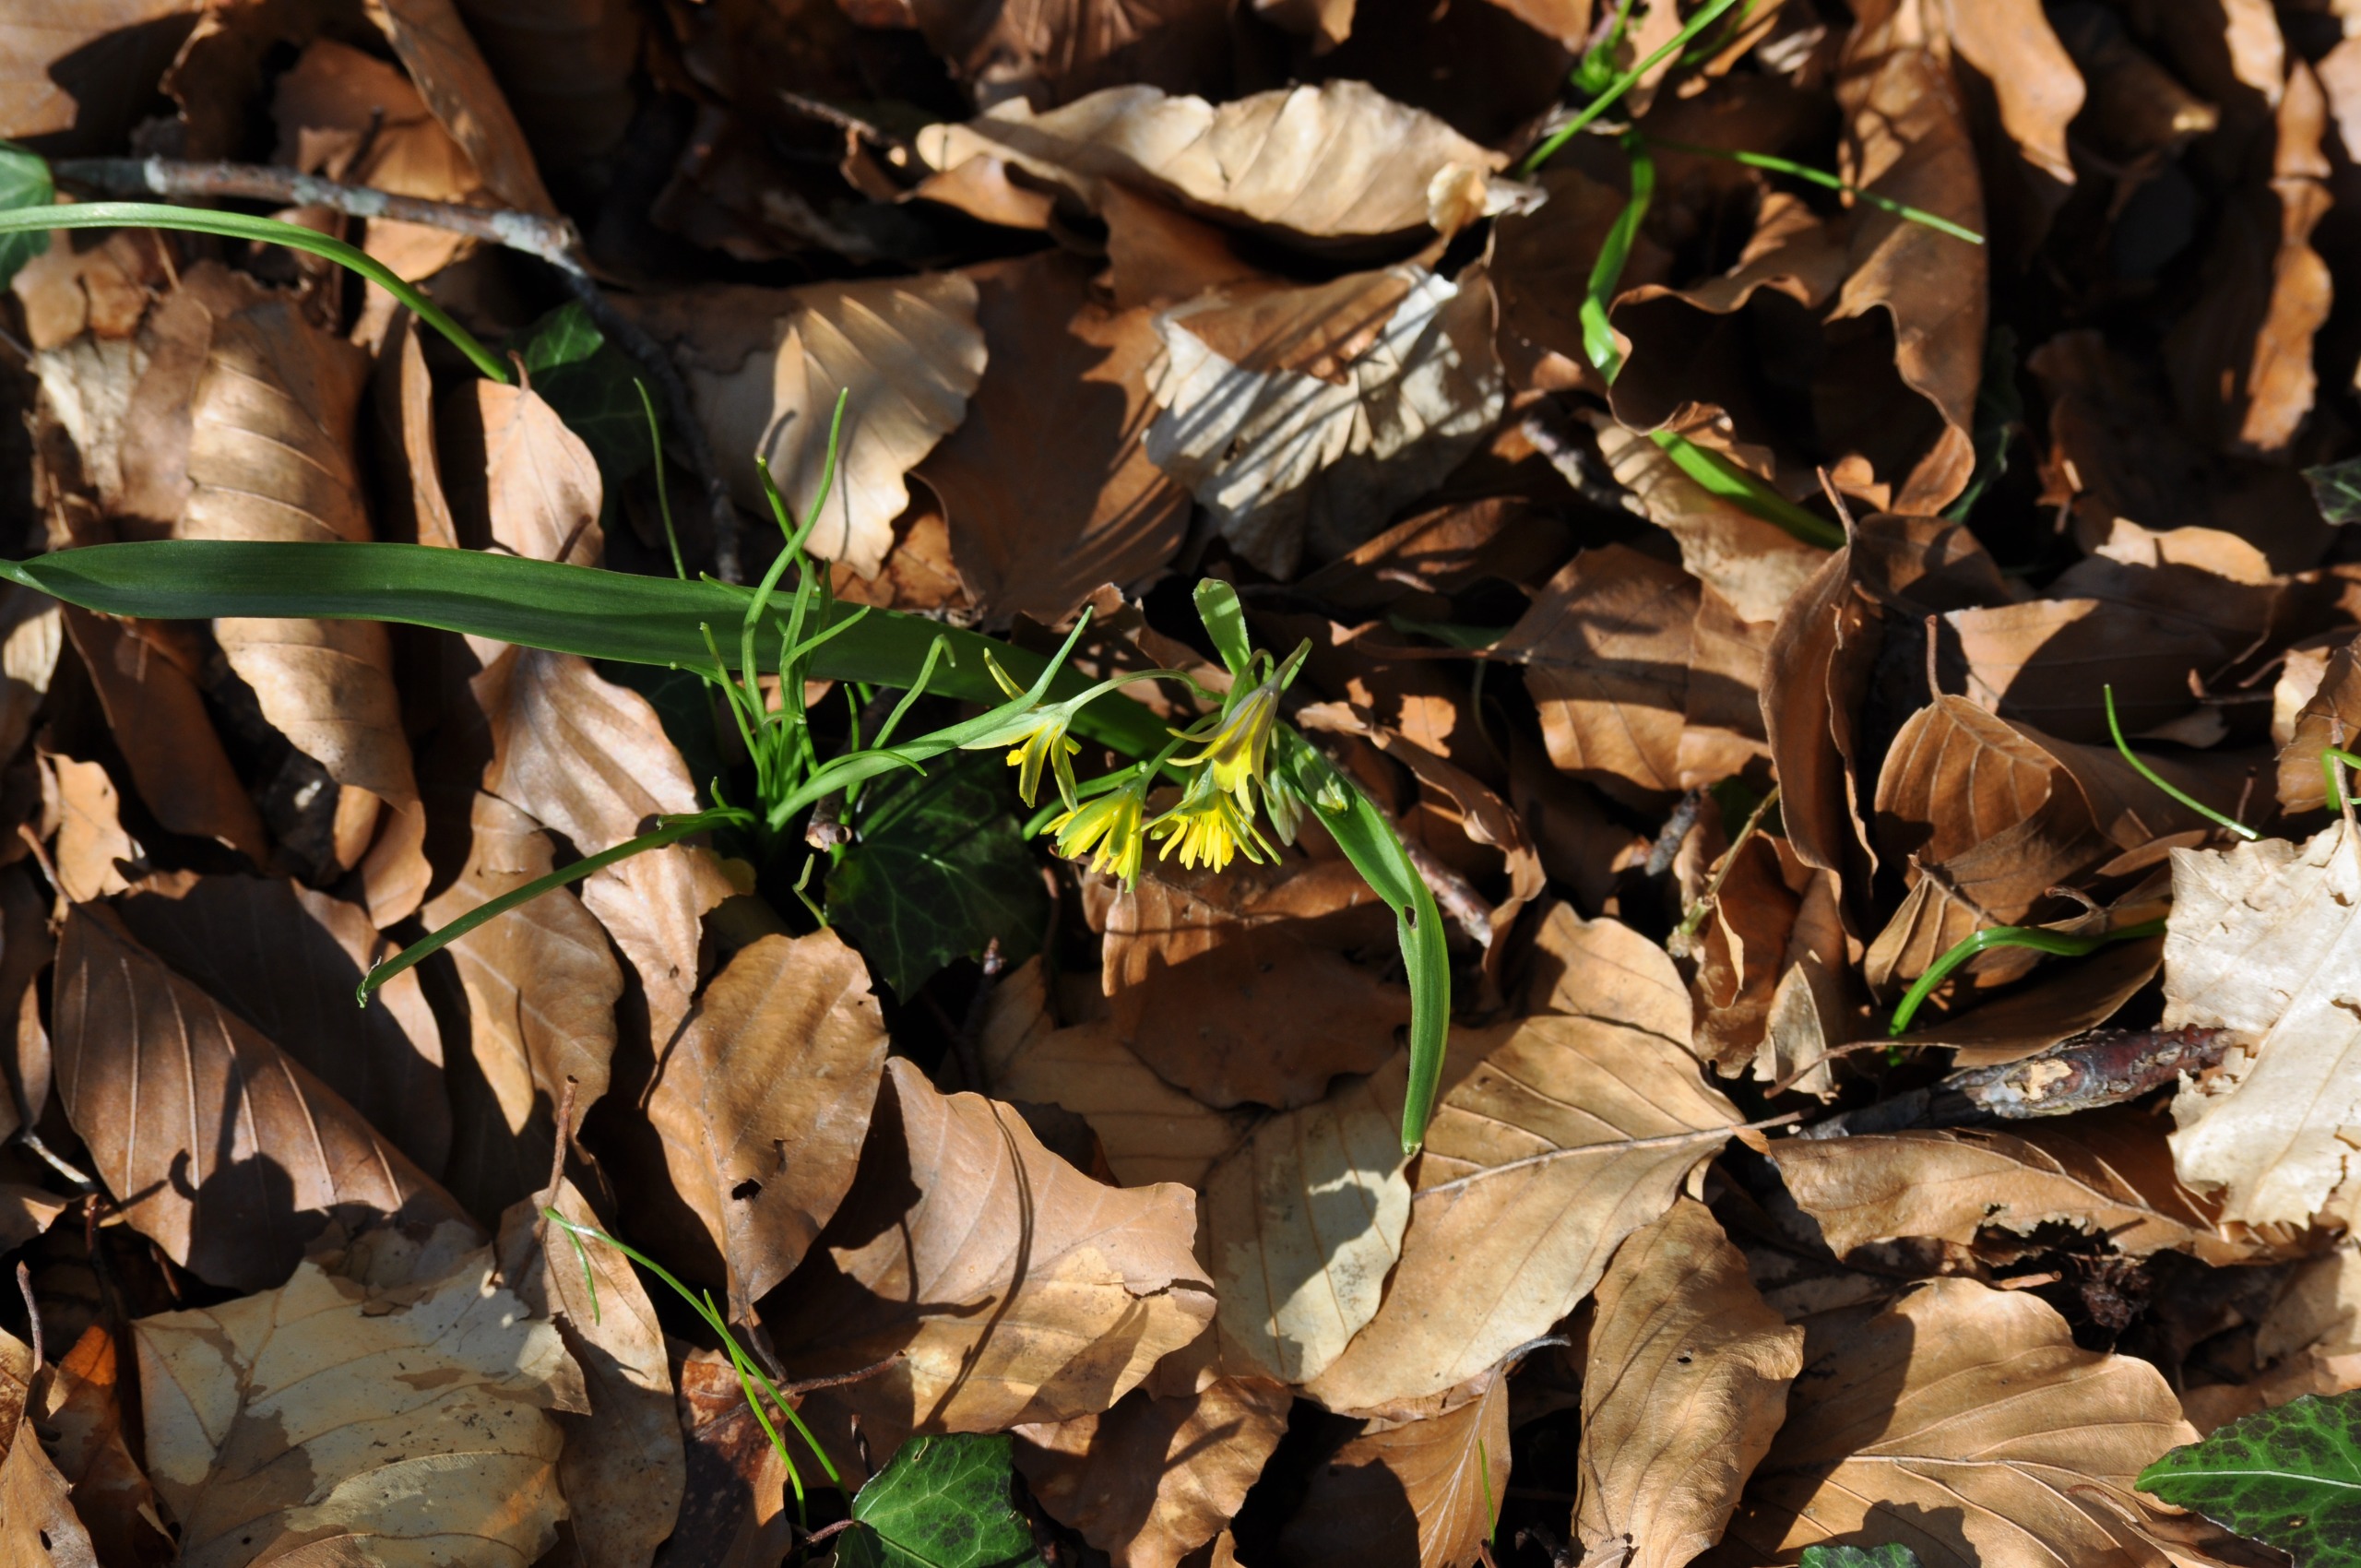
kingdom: Plantae
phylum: Tracheophyta
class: Liliopsida
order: Liliales
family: Liliaceae
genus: Gagea
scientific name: Gagea lutea
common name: Almindelig guldstjerne
